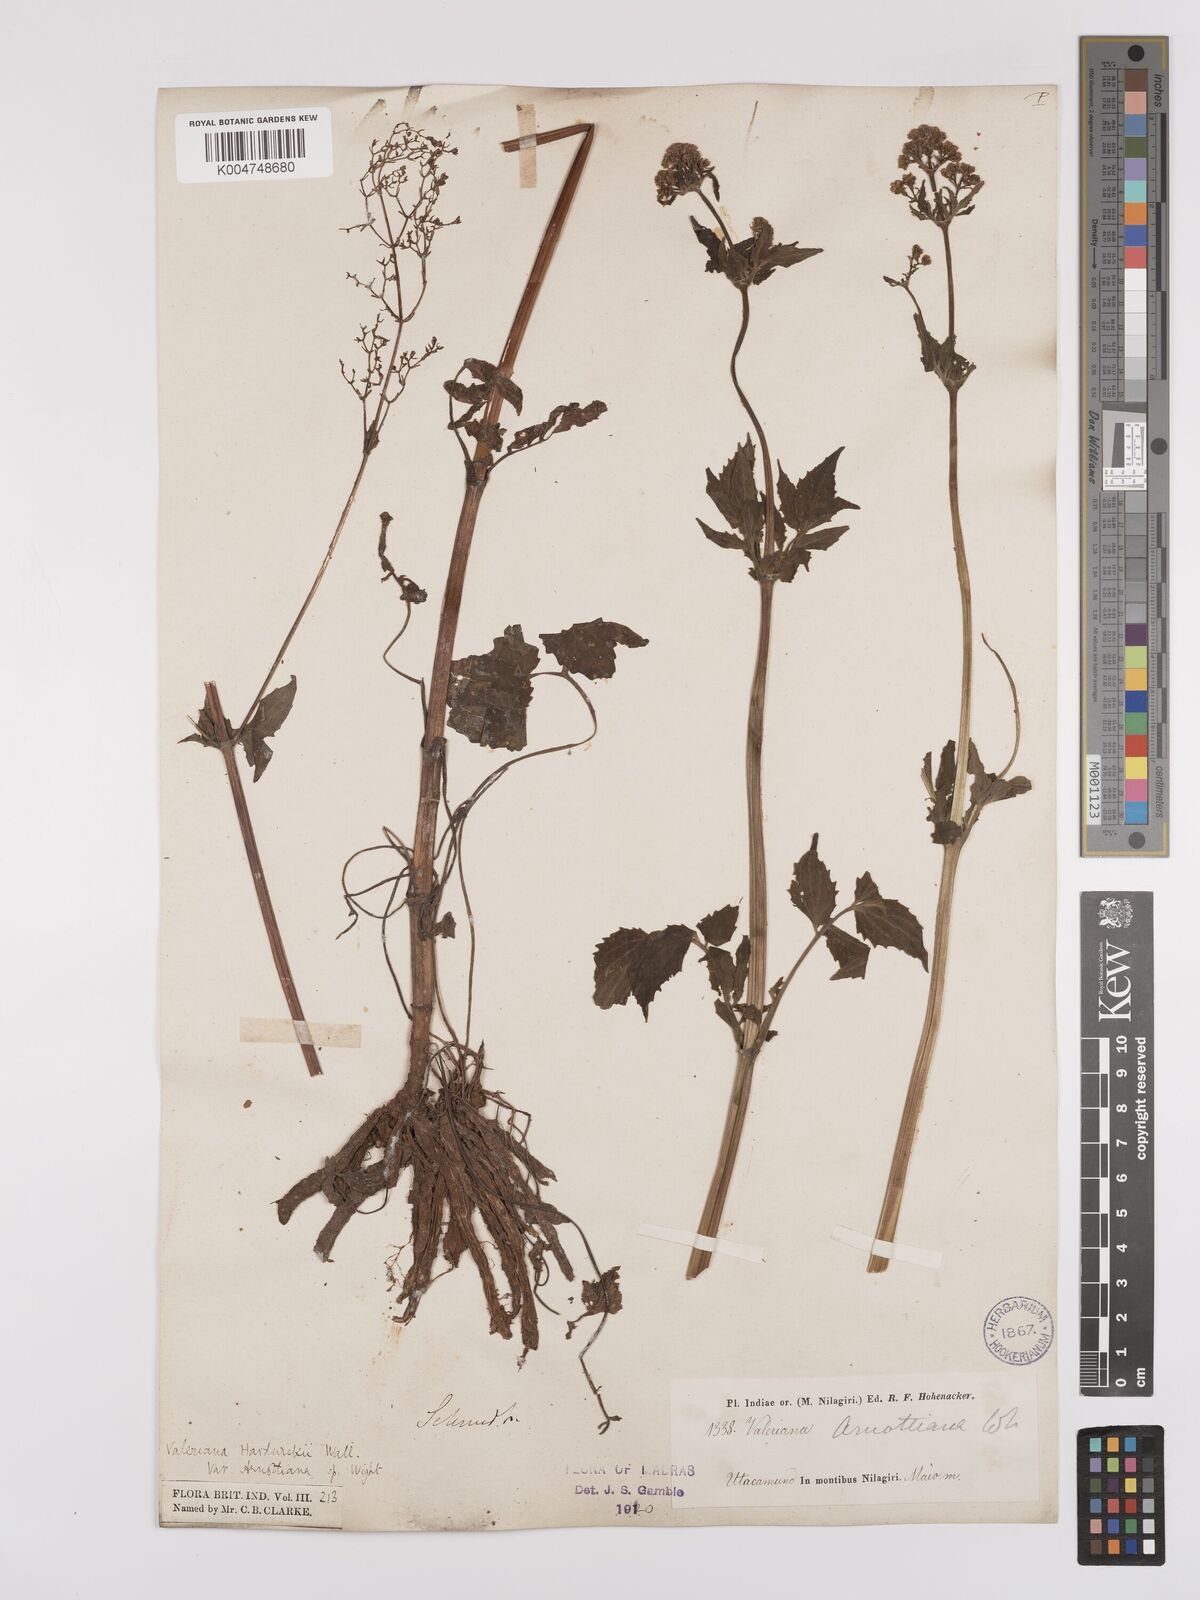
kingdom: Plantae
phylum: Tracheophyta
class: Magnoliopsida
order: Dipsacales
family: Caprifoliaceae
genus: Valeriana
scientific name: Valeriana hardwickei
